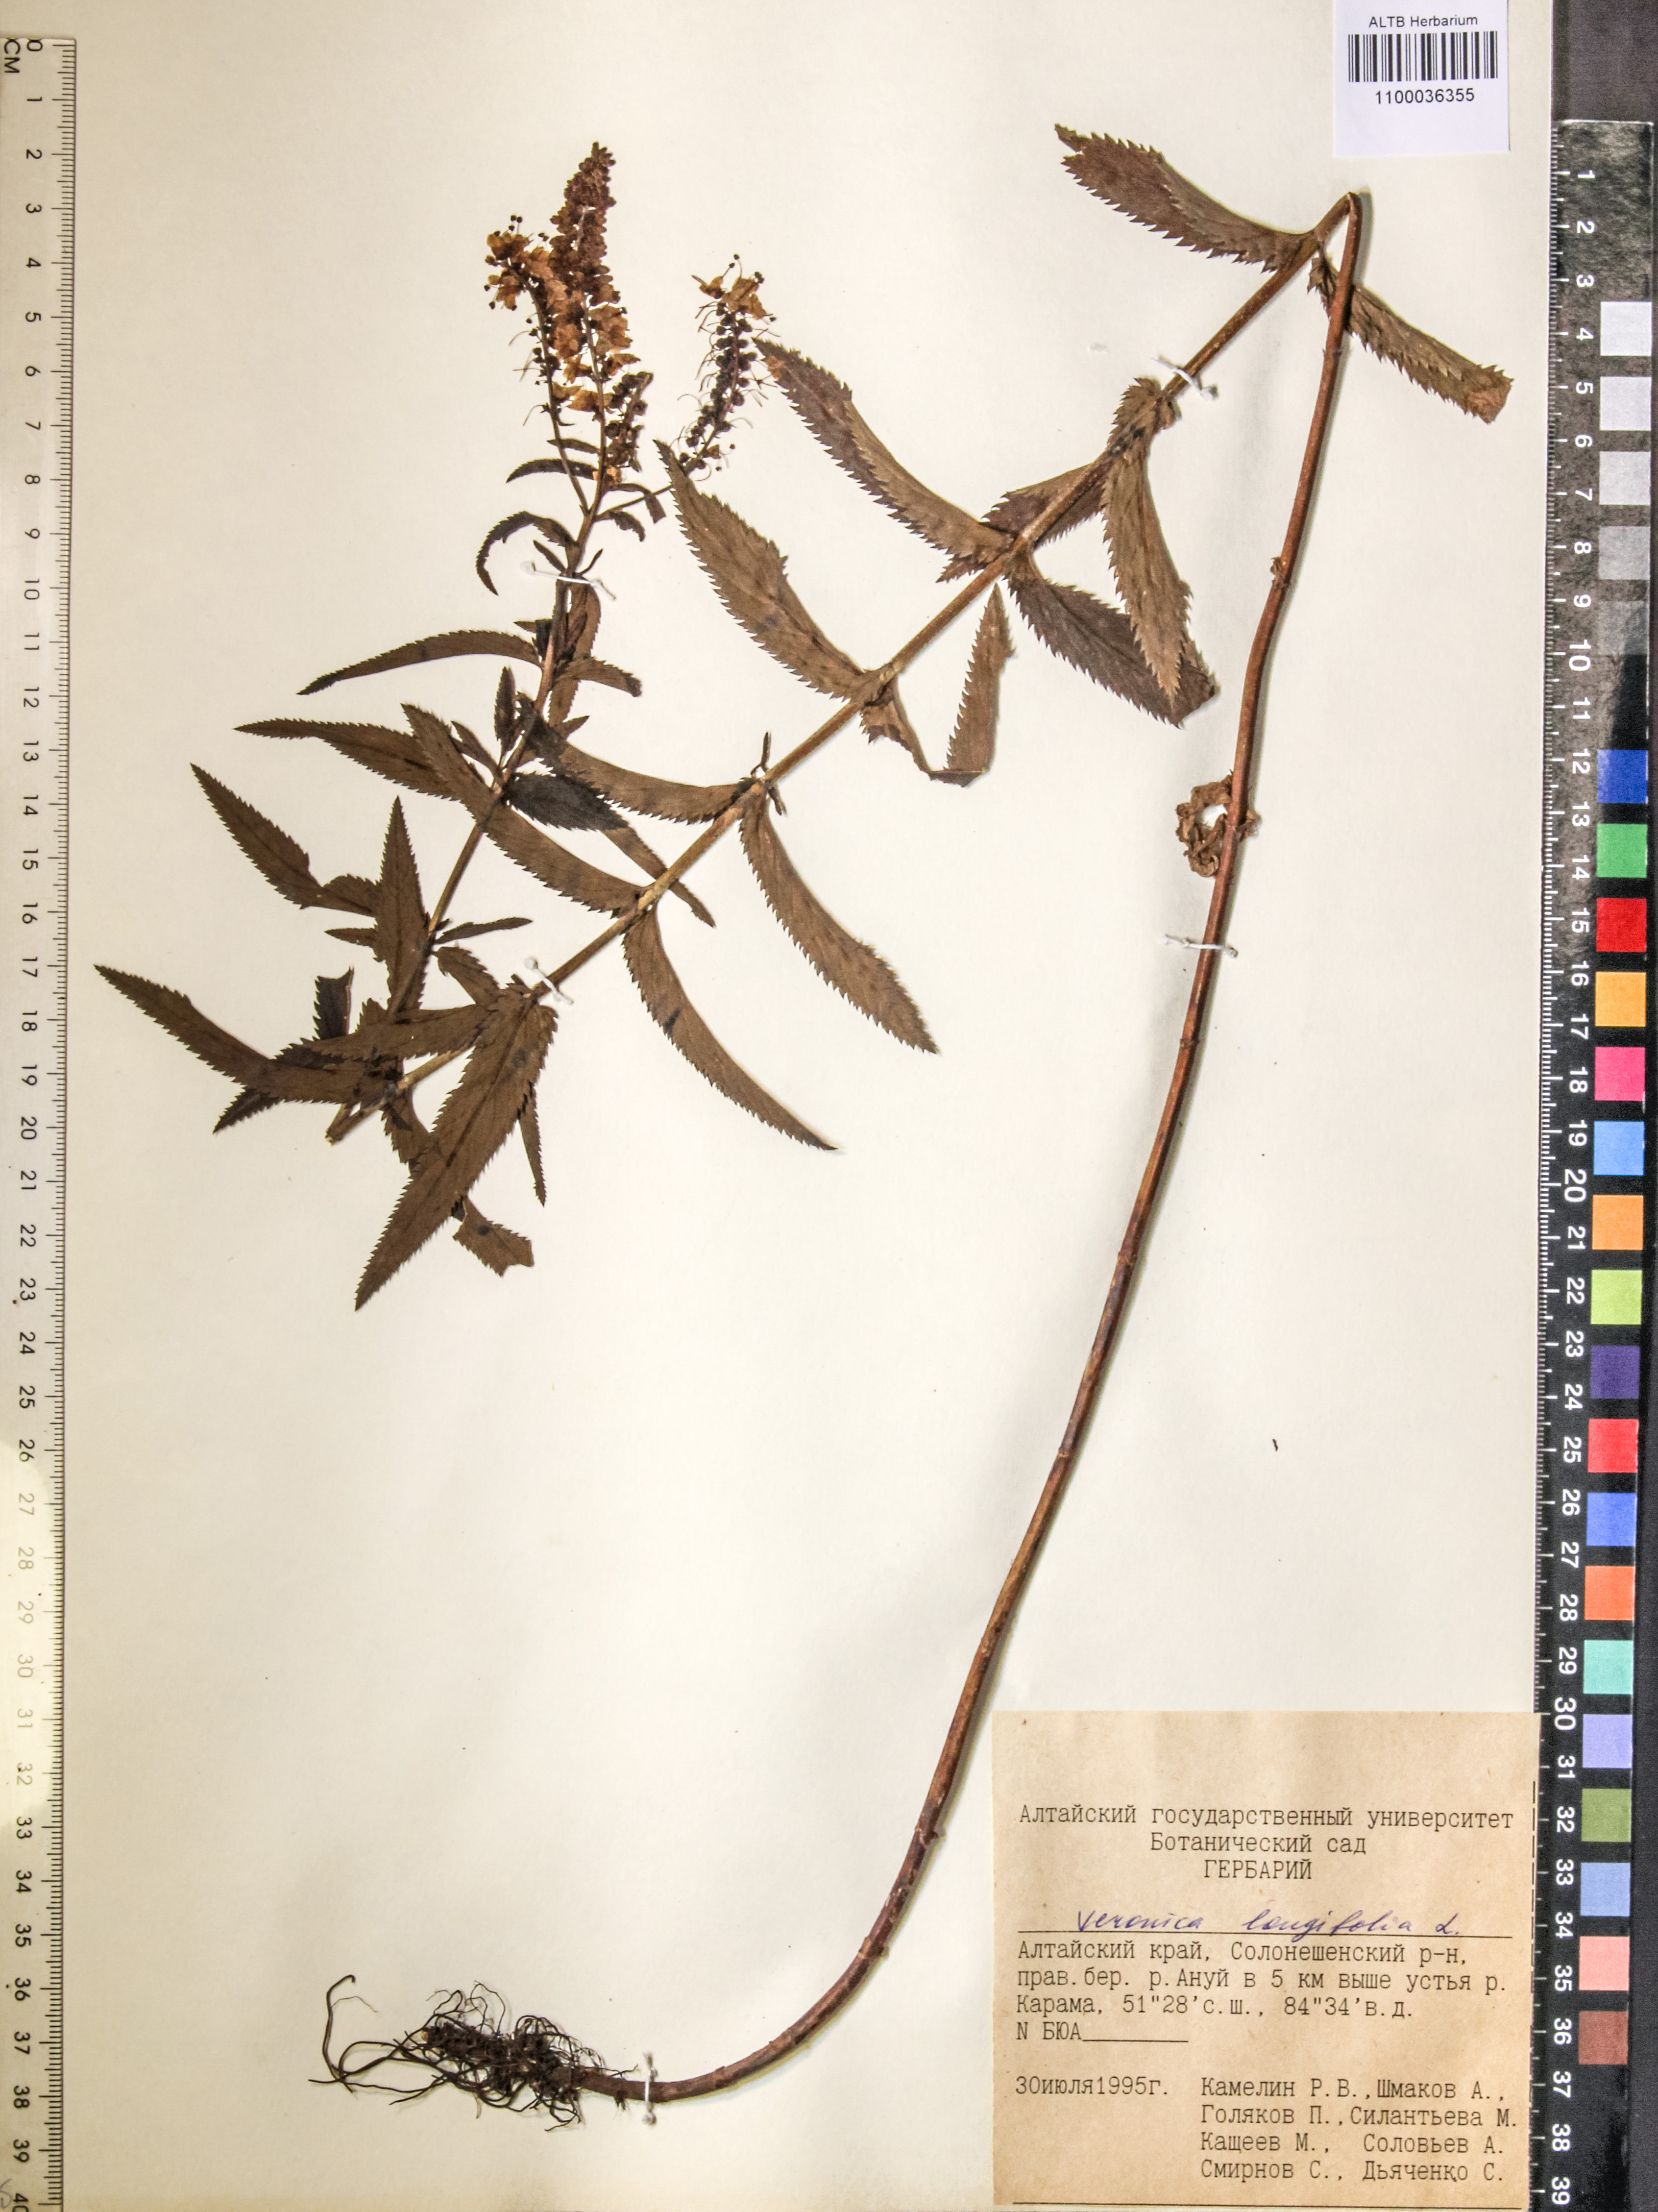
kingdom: Plantae
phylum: Tracheophyta
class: Magnoliopsida
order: Lamiales
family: Plantaginaceae
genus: Veronica
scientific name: Veronica longifolia
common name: Garden speedwell
